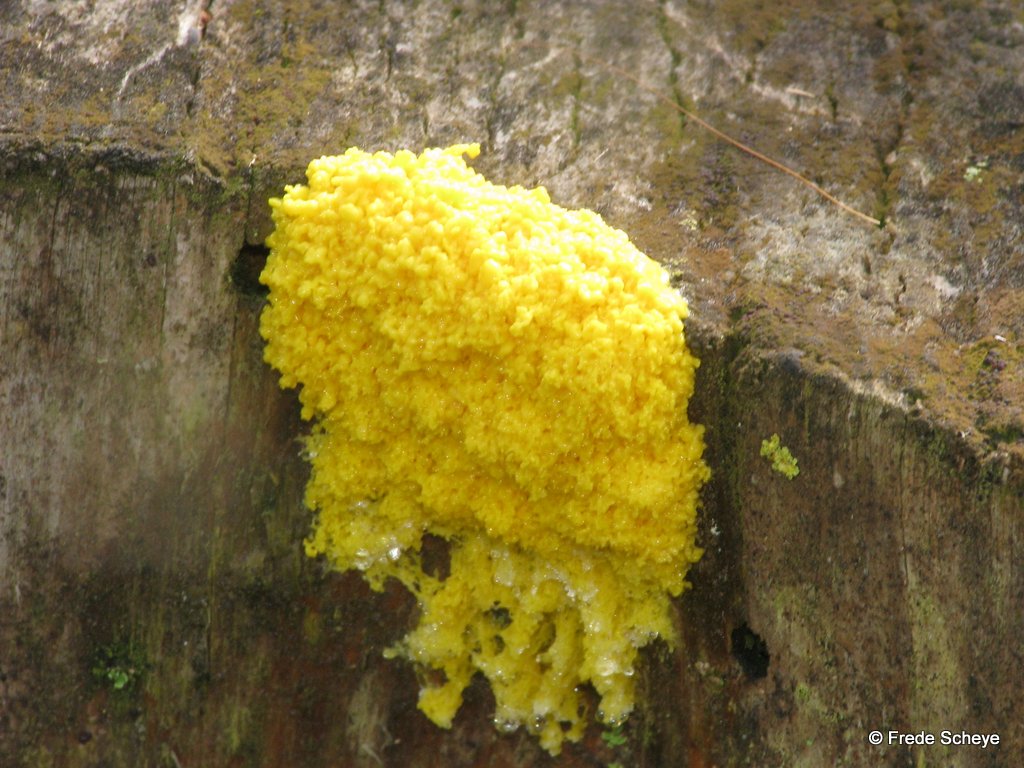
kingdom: Protozoa
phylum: Mycetozoa
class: Myxomycetes
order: Physarales
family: Physaraceae
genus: Fuligo
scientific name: Fuligo septica
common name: gul troldsmør
